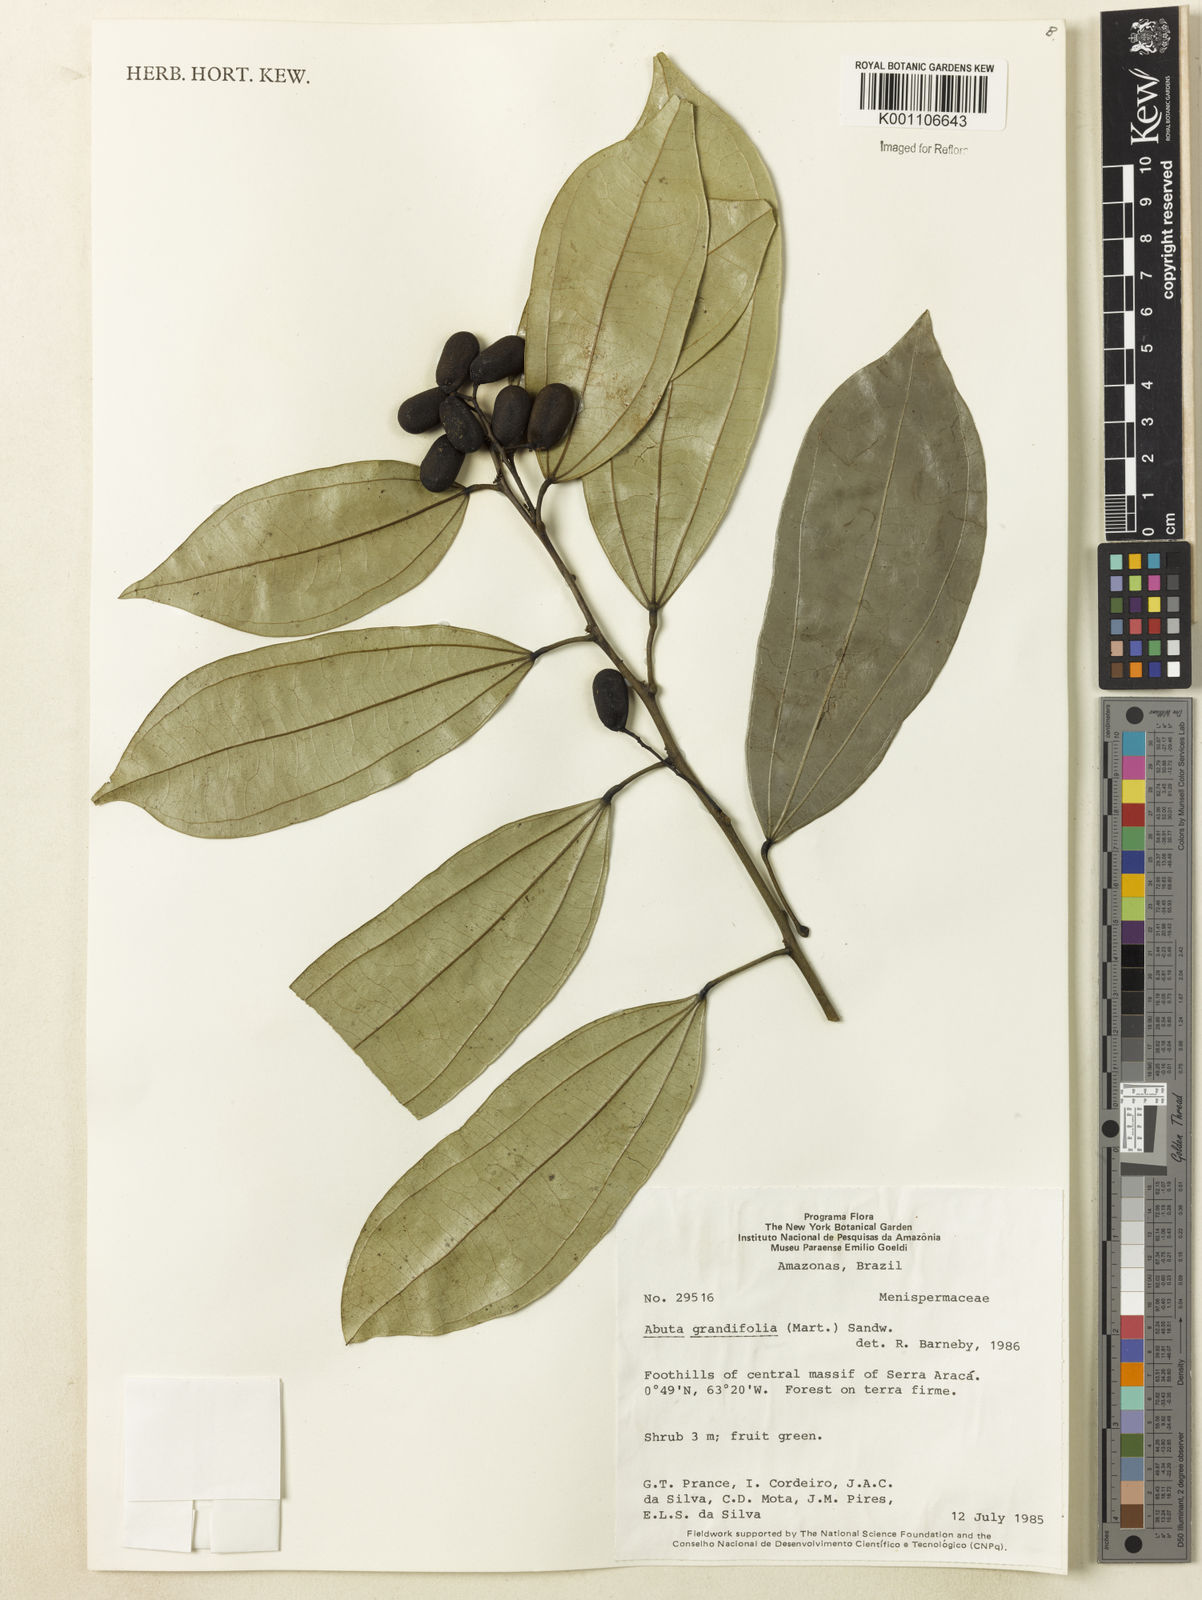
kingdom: Plantae
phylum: Tracheophyta
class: Magnoliopsida
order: Ranunculales
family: Menispermaceae
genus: Abuta
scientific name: Abuta grandifolia
